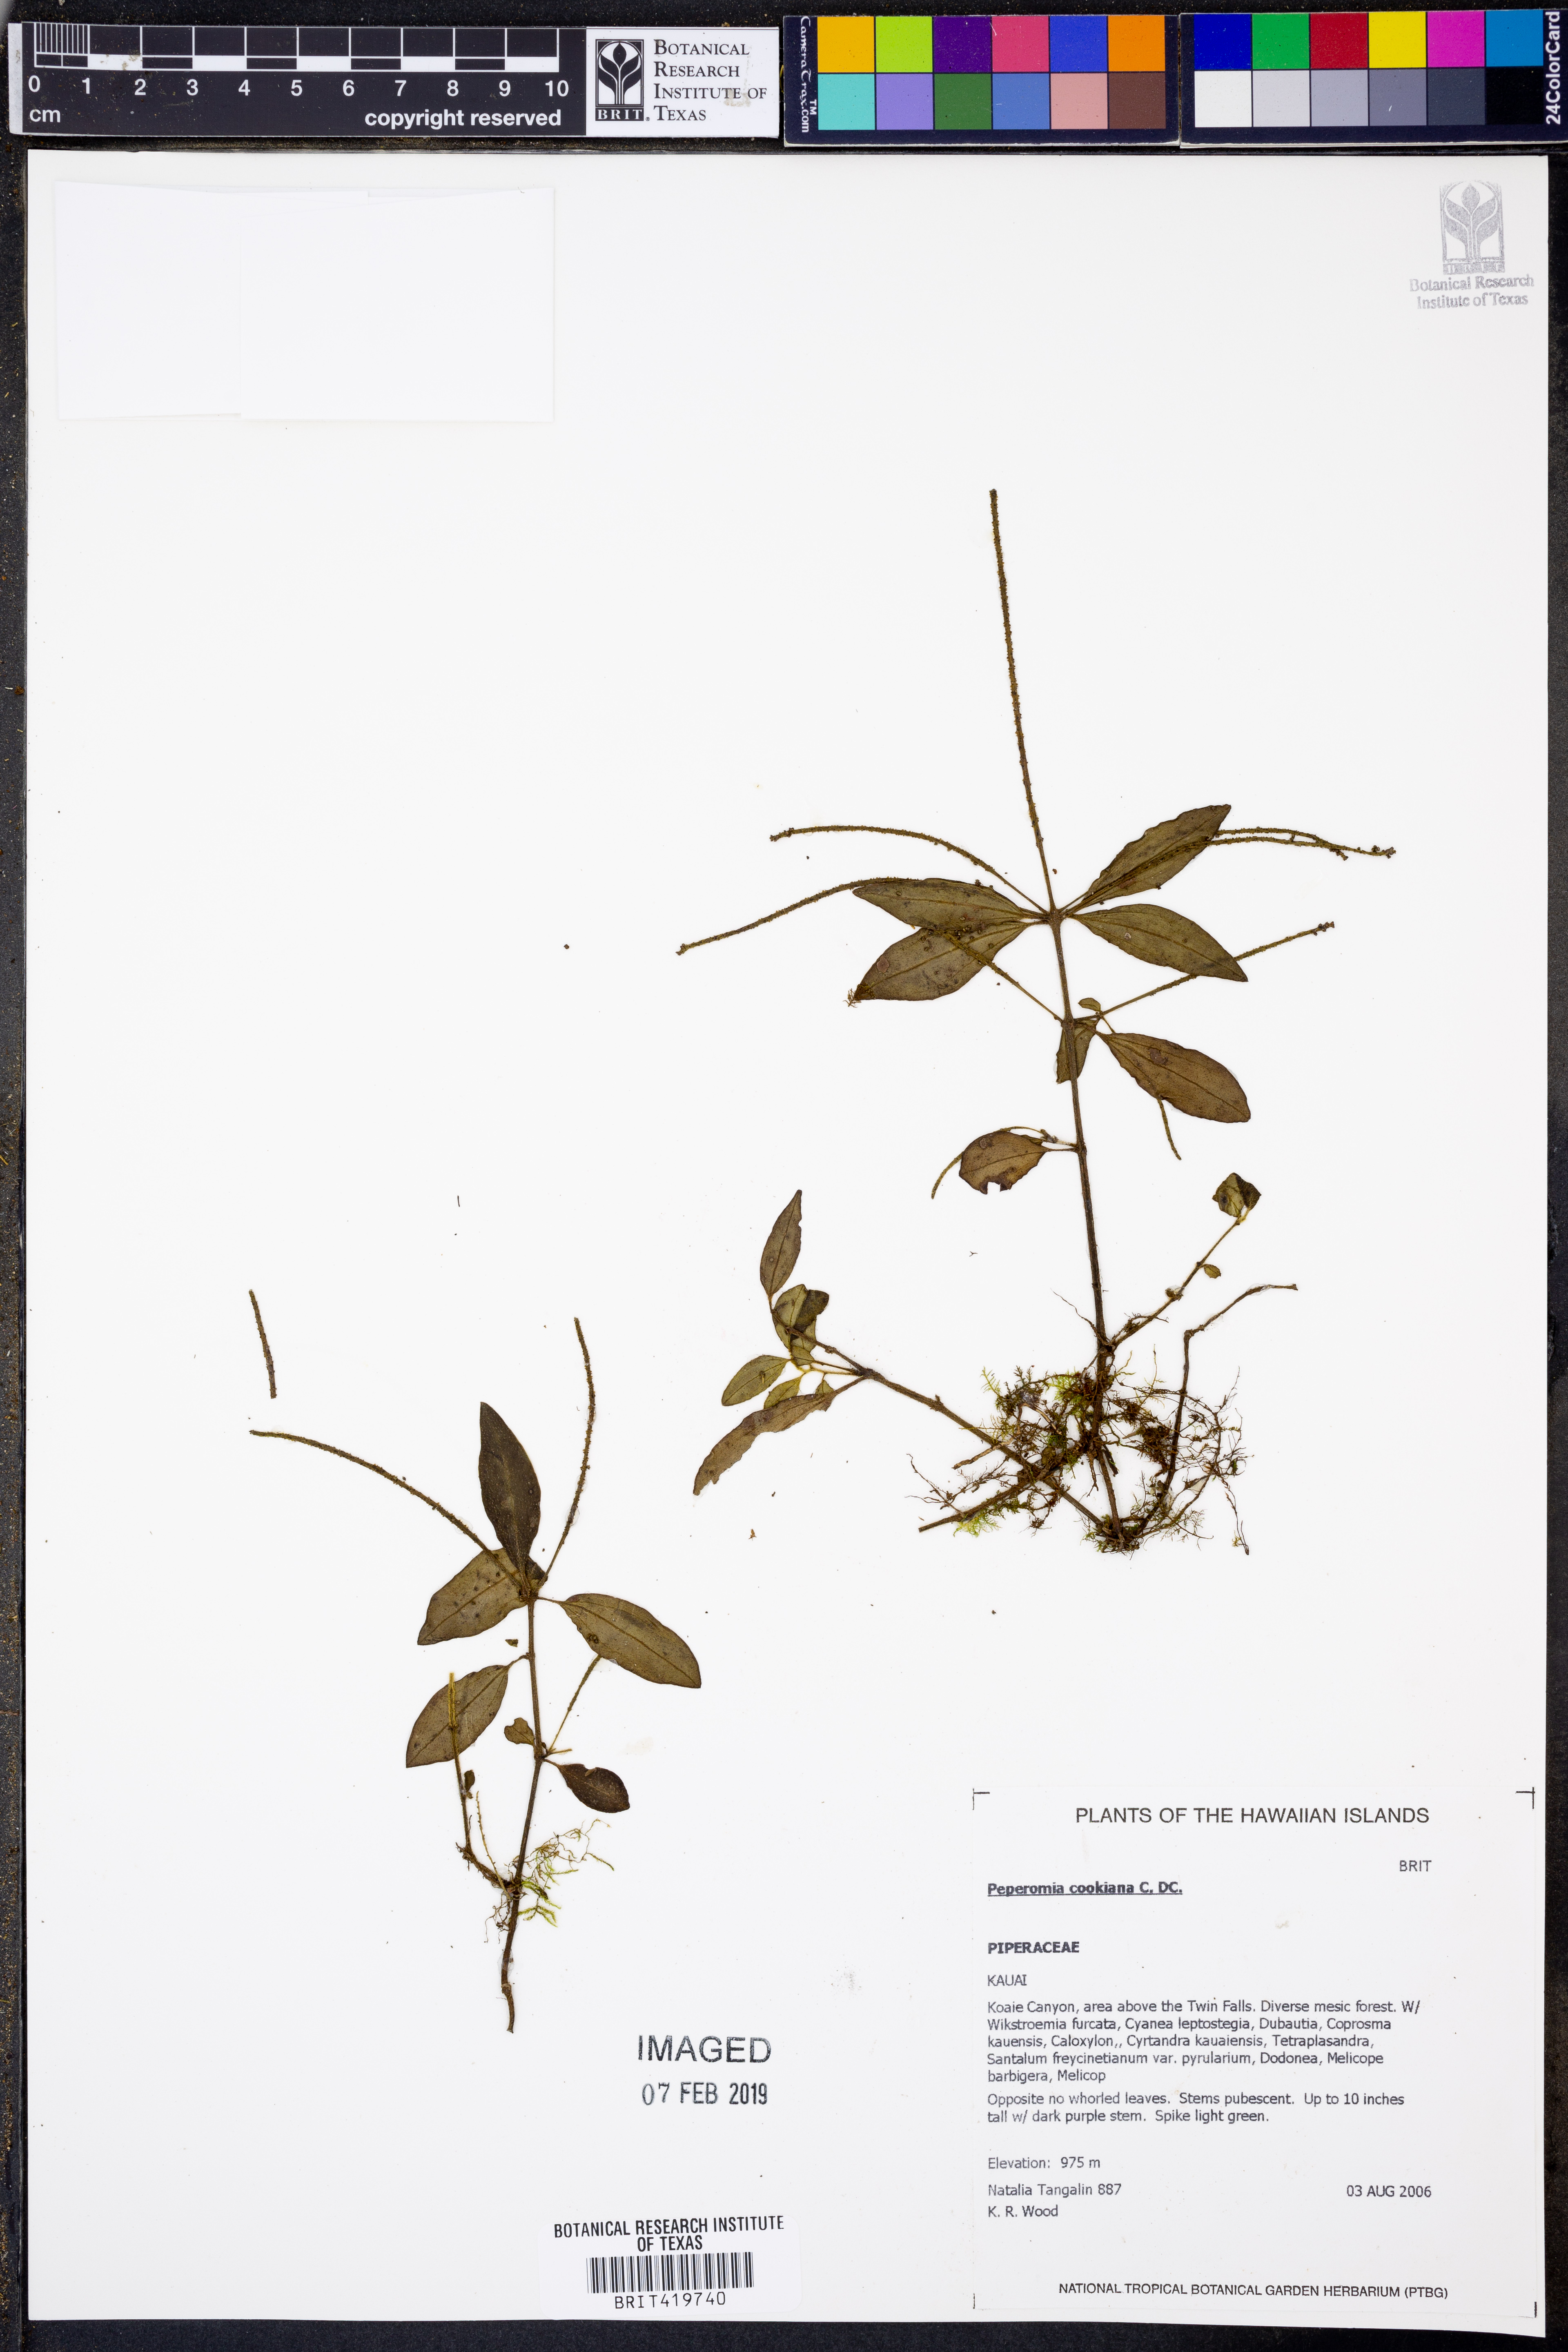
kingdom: Plantae
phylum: Tracheophyta
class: Magnoliopsida
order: Piperales
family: Piperaceae
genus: Peperomia
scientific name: Peperomia cookiana
